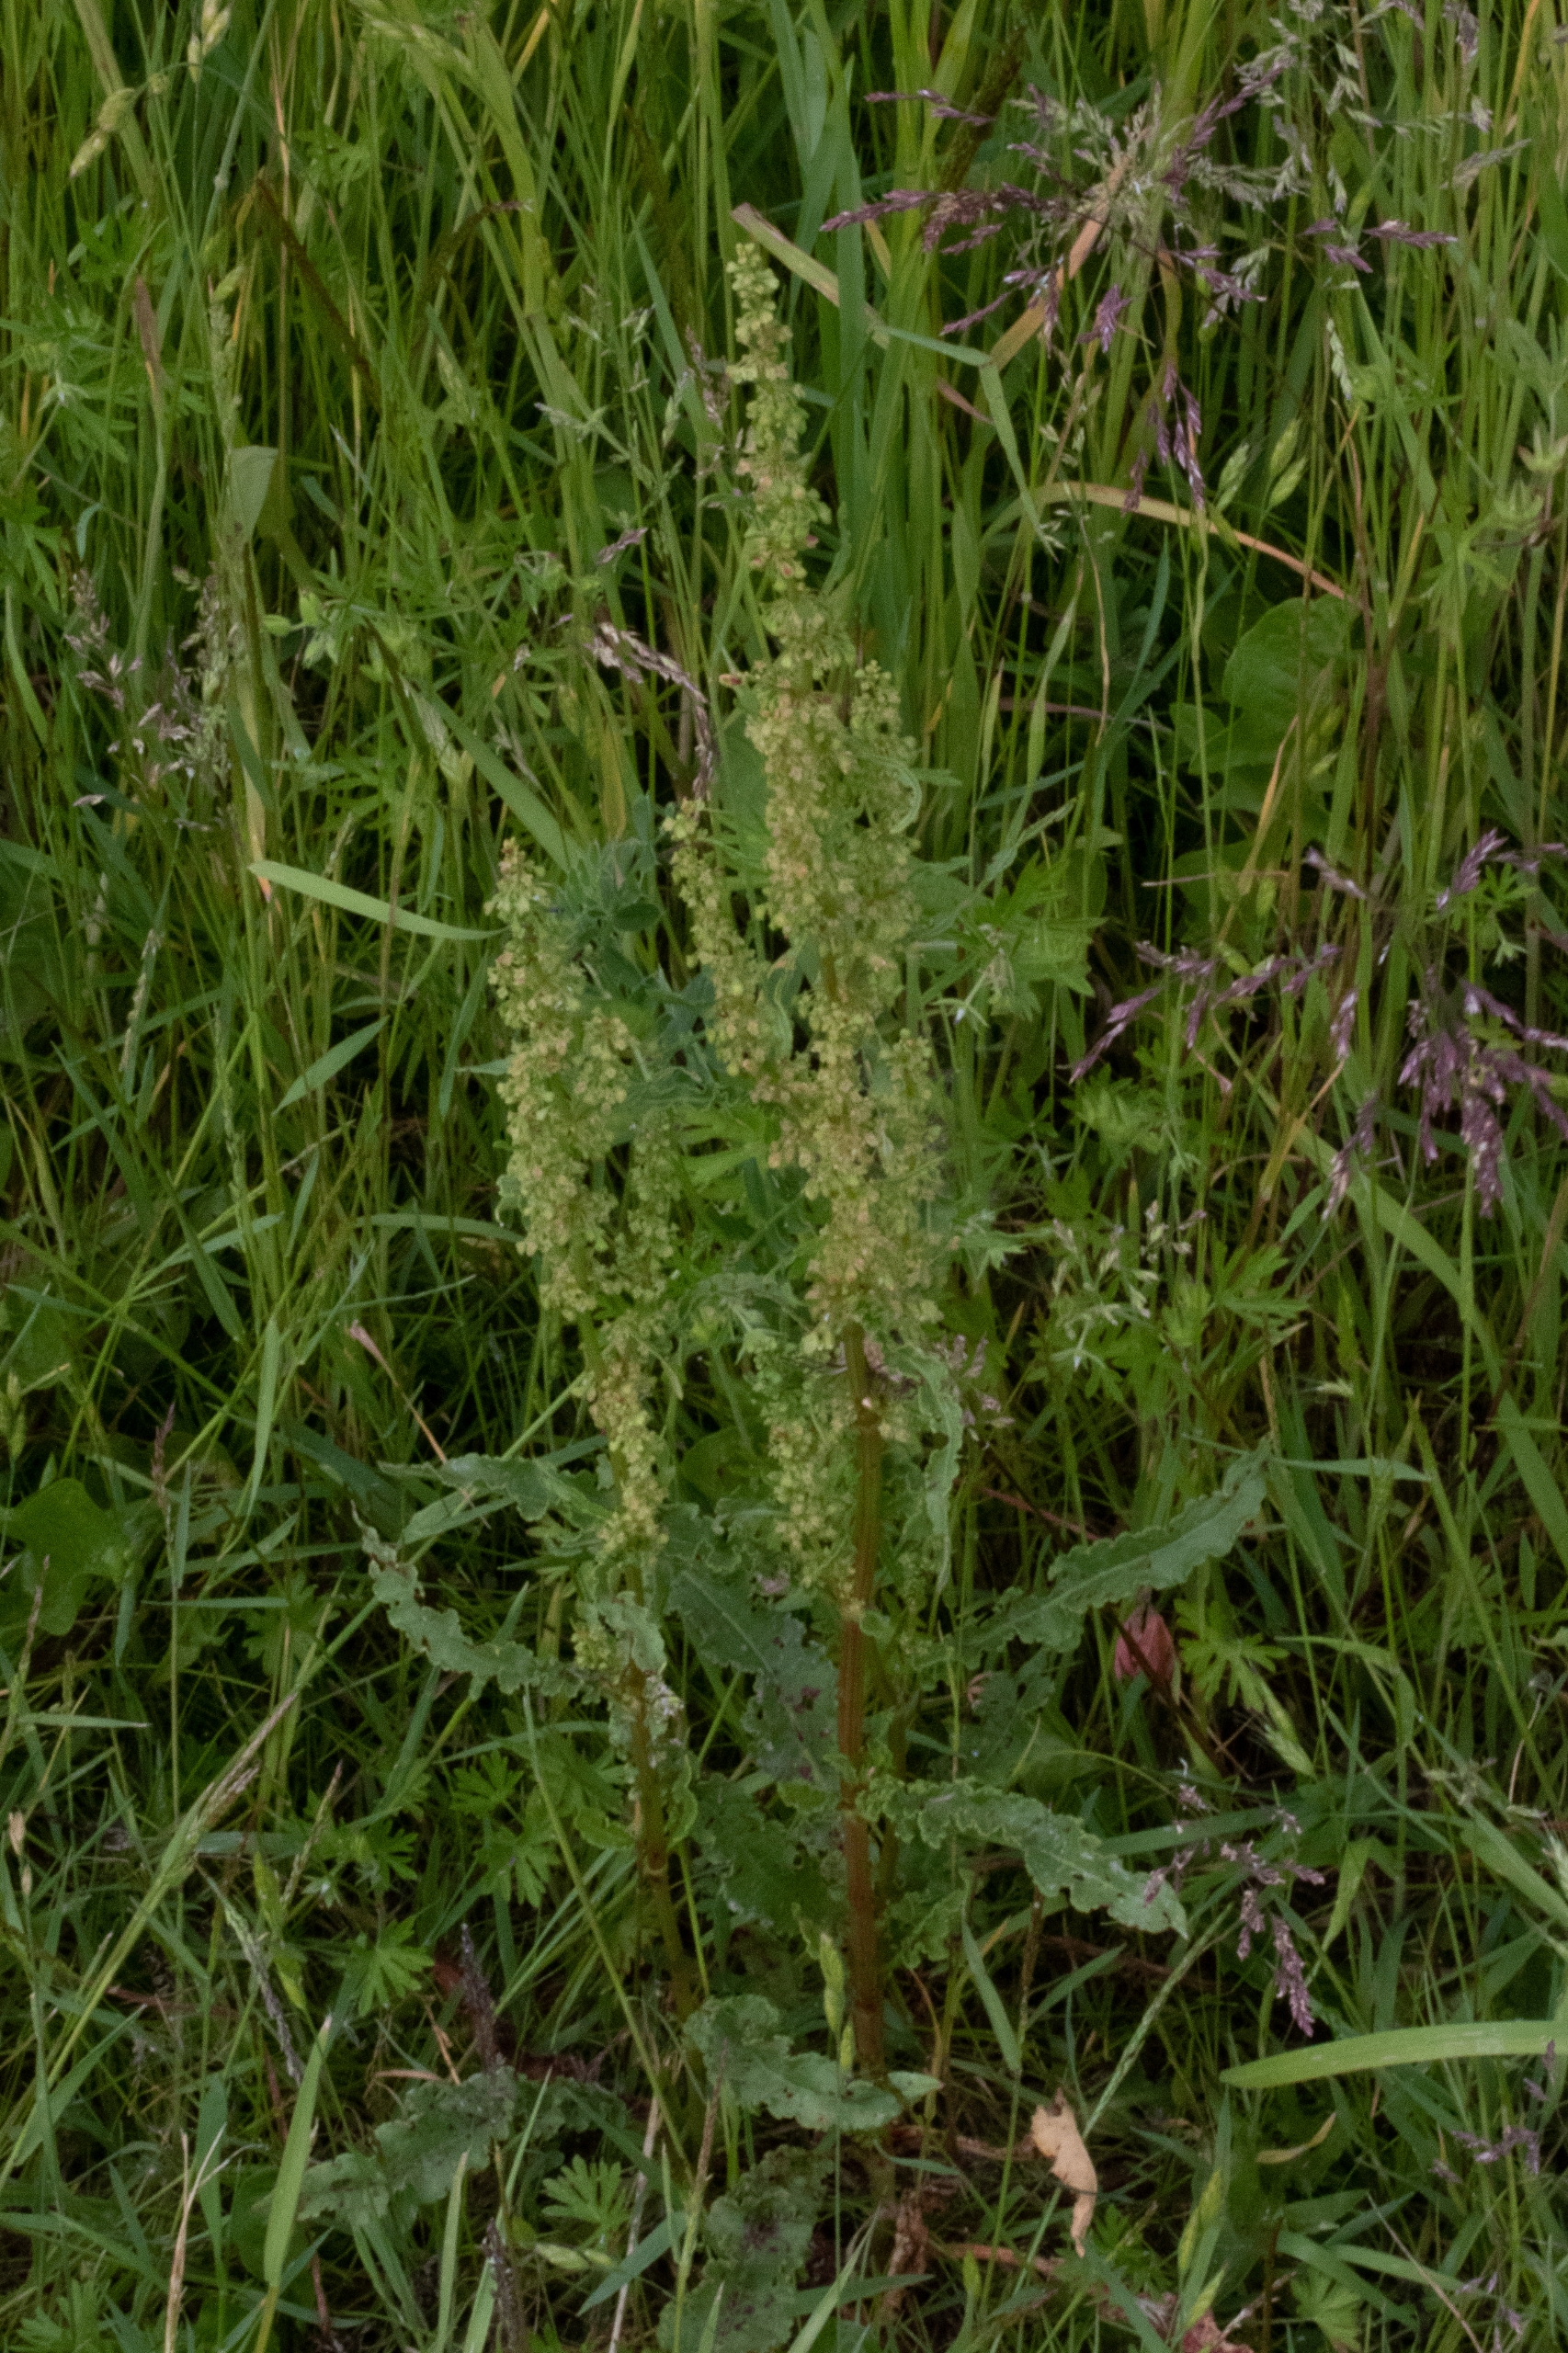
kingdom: Plantae
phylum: Tracheophyta
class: Magnoliopsida
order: Caryophyllales
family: Polygonaceae
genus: Rumex
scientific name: Rumex crispus
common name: Kruset skræppe
